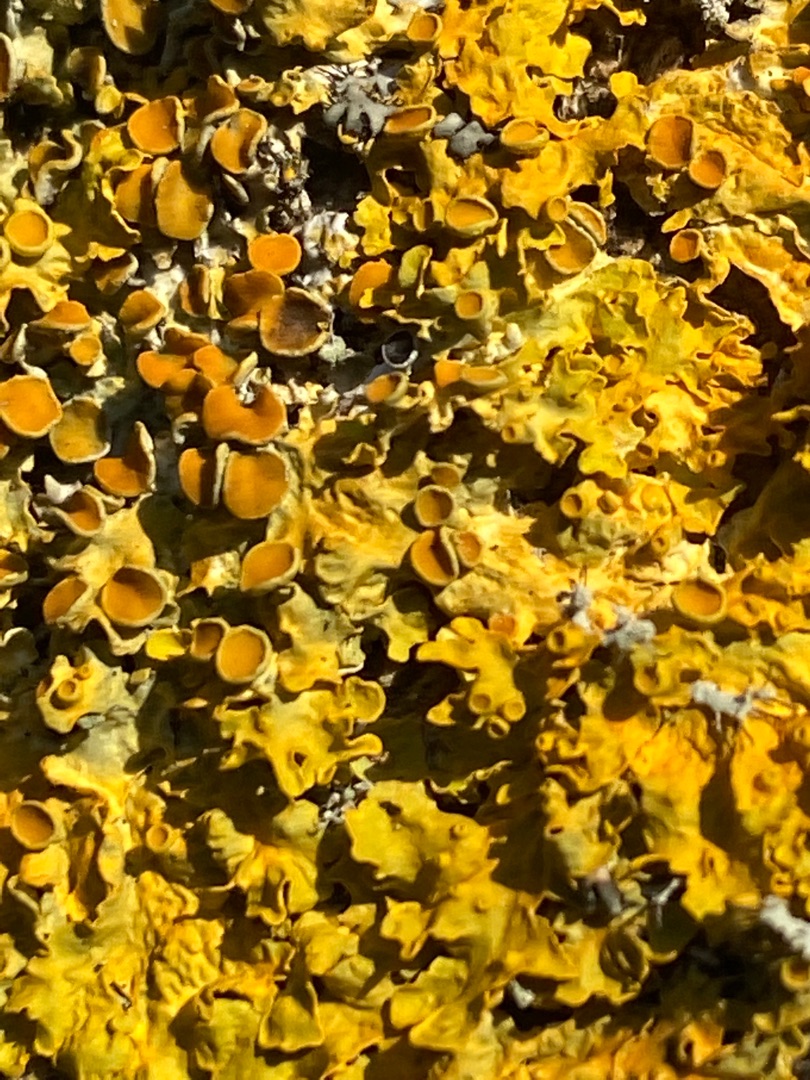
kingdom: Fungi
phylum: Ascomycota
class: Lecanoromycetes
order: Teloschistales
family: Teloschistaceae
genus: Xanthoria
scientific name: Xanthoria parietina
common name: Almindelig væggelav
